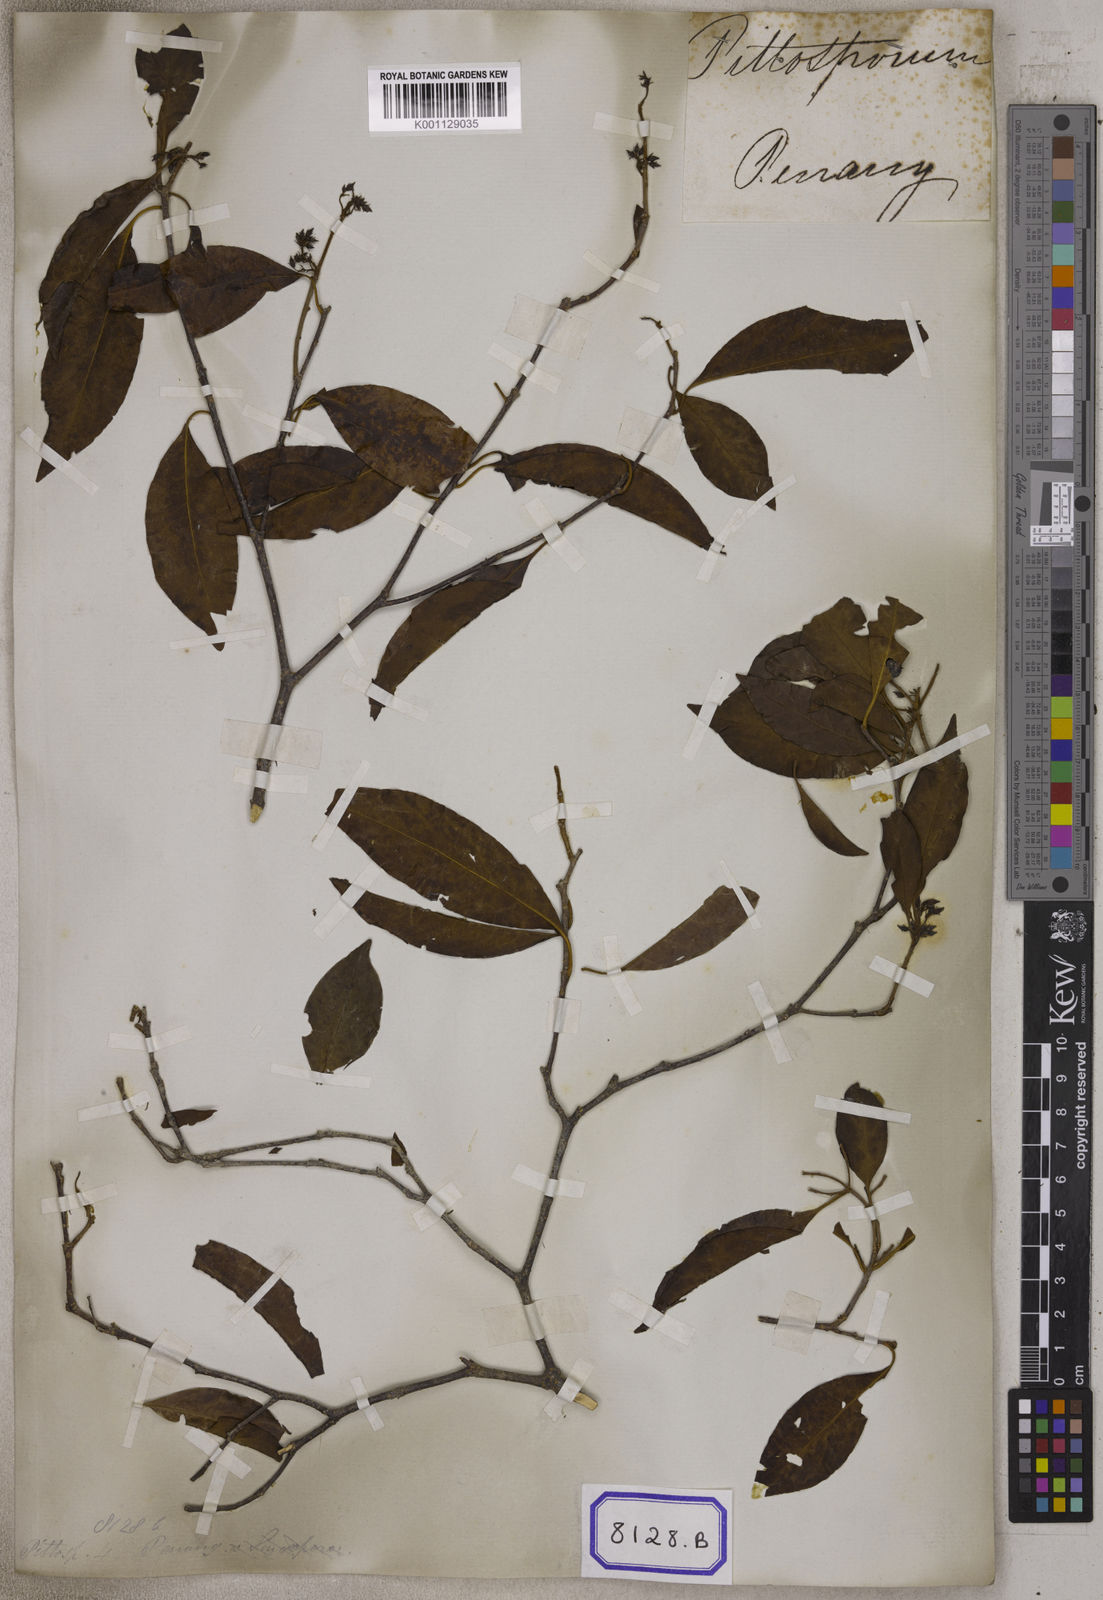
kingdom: Plantae
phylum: Tracheophyta
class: Magnoliopsida
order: Apiales
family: Pittosporaceae
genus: Pittosporum
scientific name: Pittosporum ferrugineum
